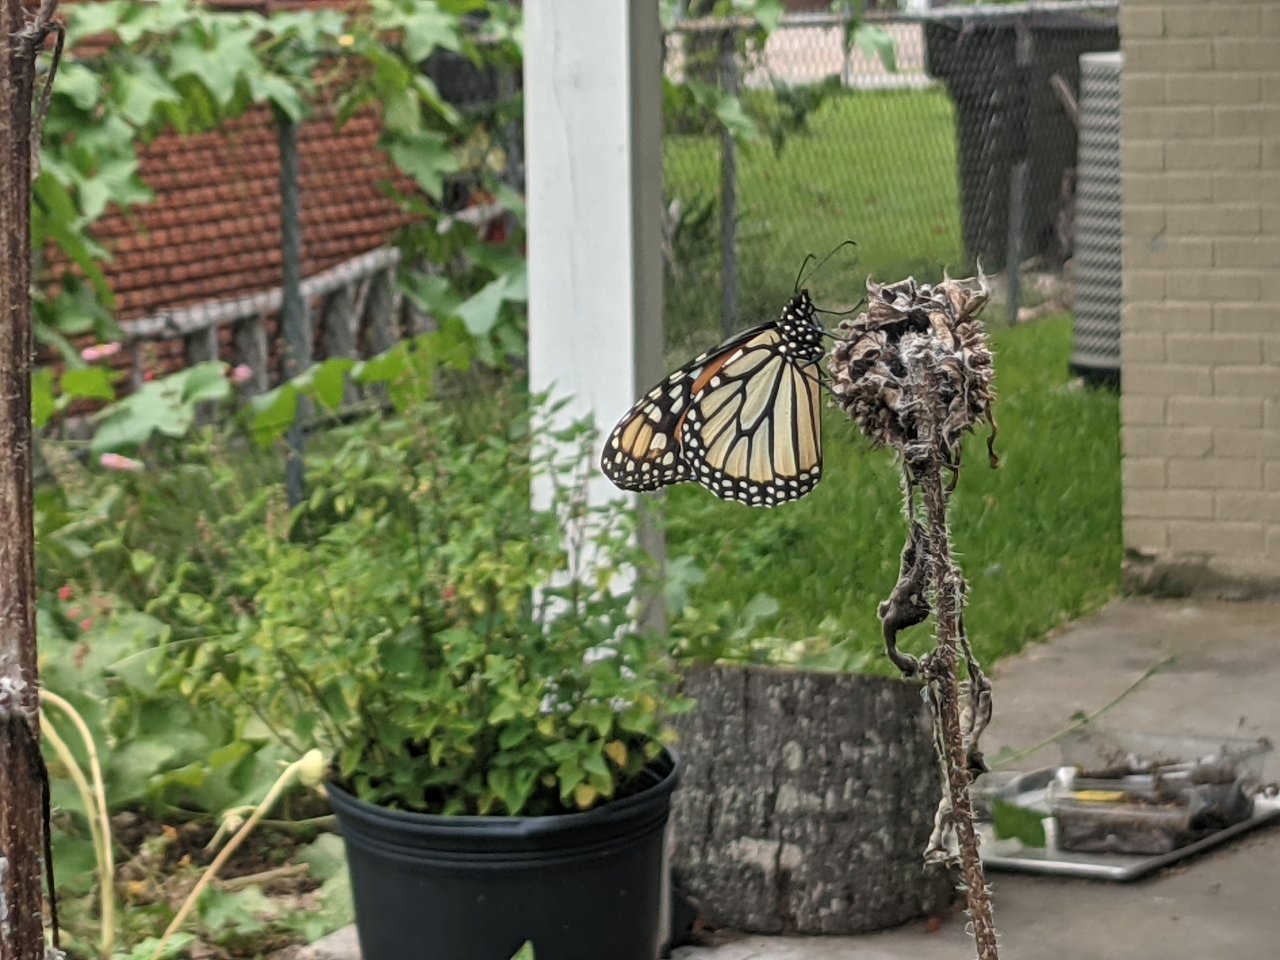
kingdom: Animalia
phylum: Arthropoda
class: Insecta
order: Lepidoptera
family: Nymphalidae
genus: Danaus
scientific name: Danaus plexippus
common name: Monarch
